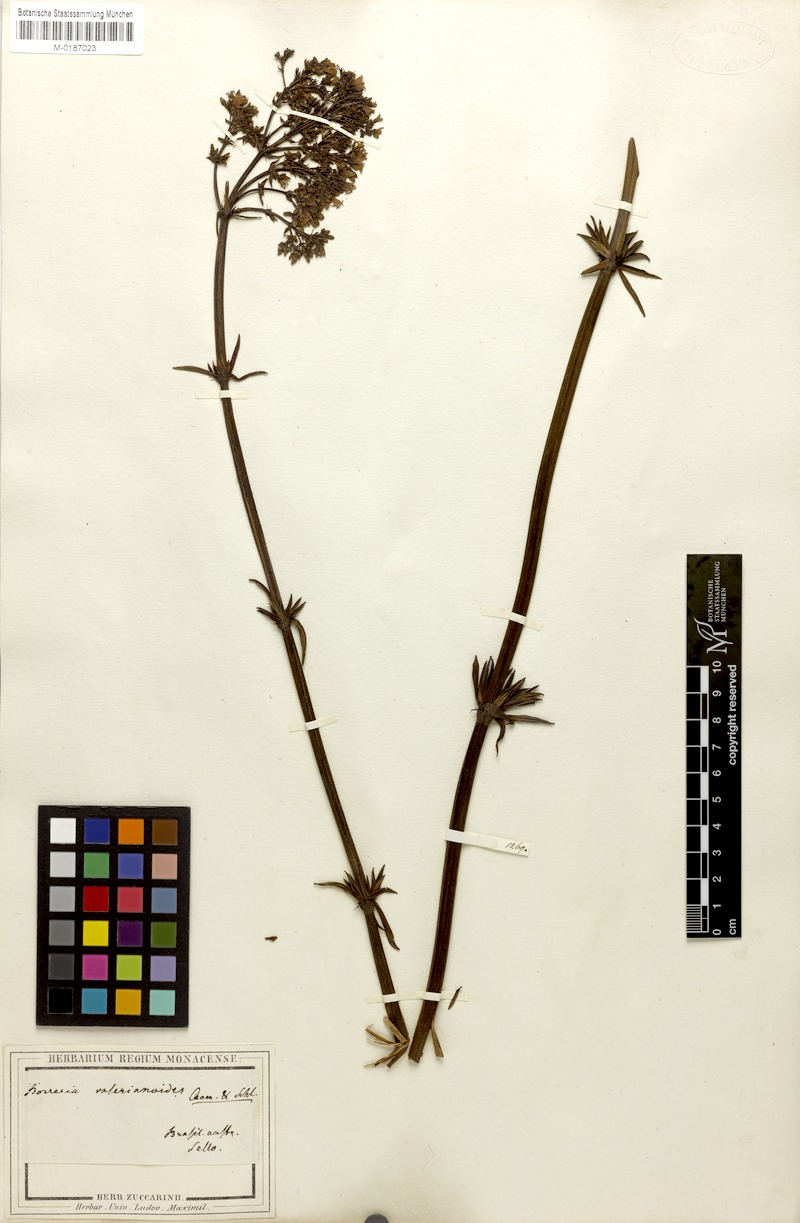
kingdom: Plantae
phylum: Tracheophyta
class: Magnoliopsida
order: Gentianales
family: Rubiaceae
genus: Galianthe
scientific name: Galianthe verbenoides
